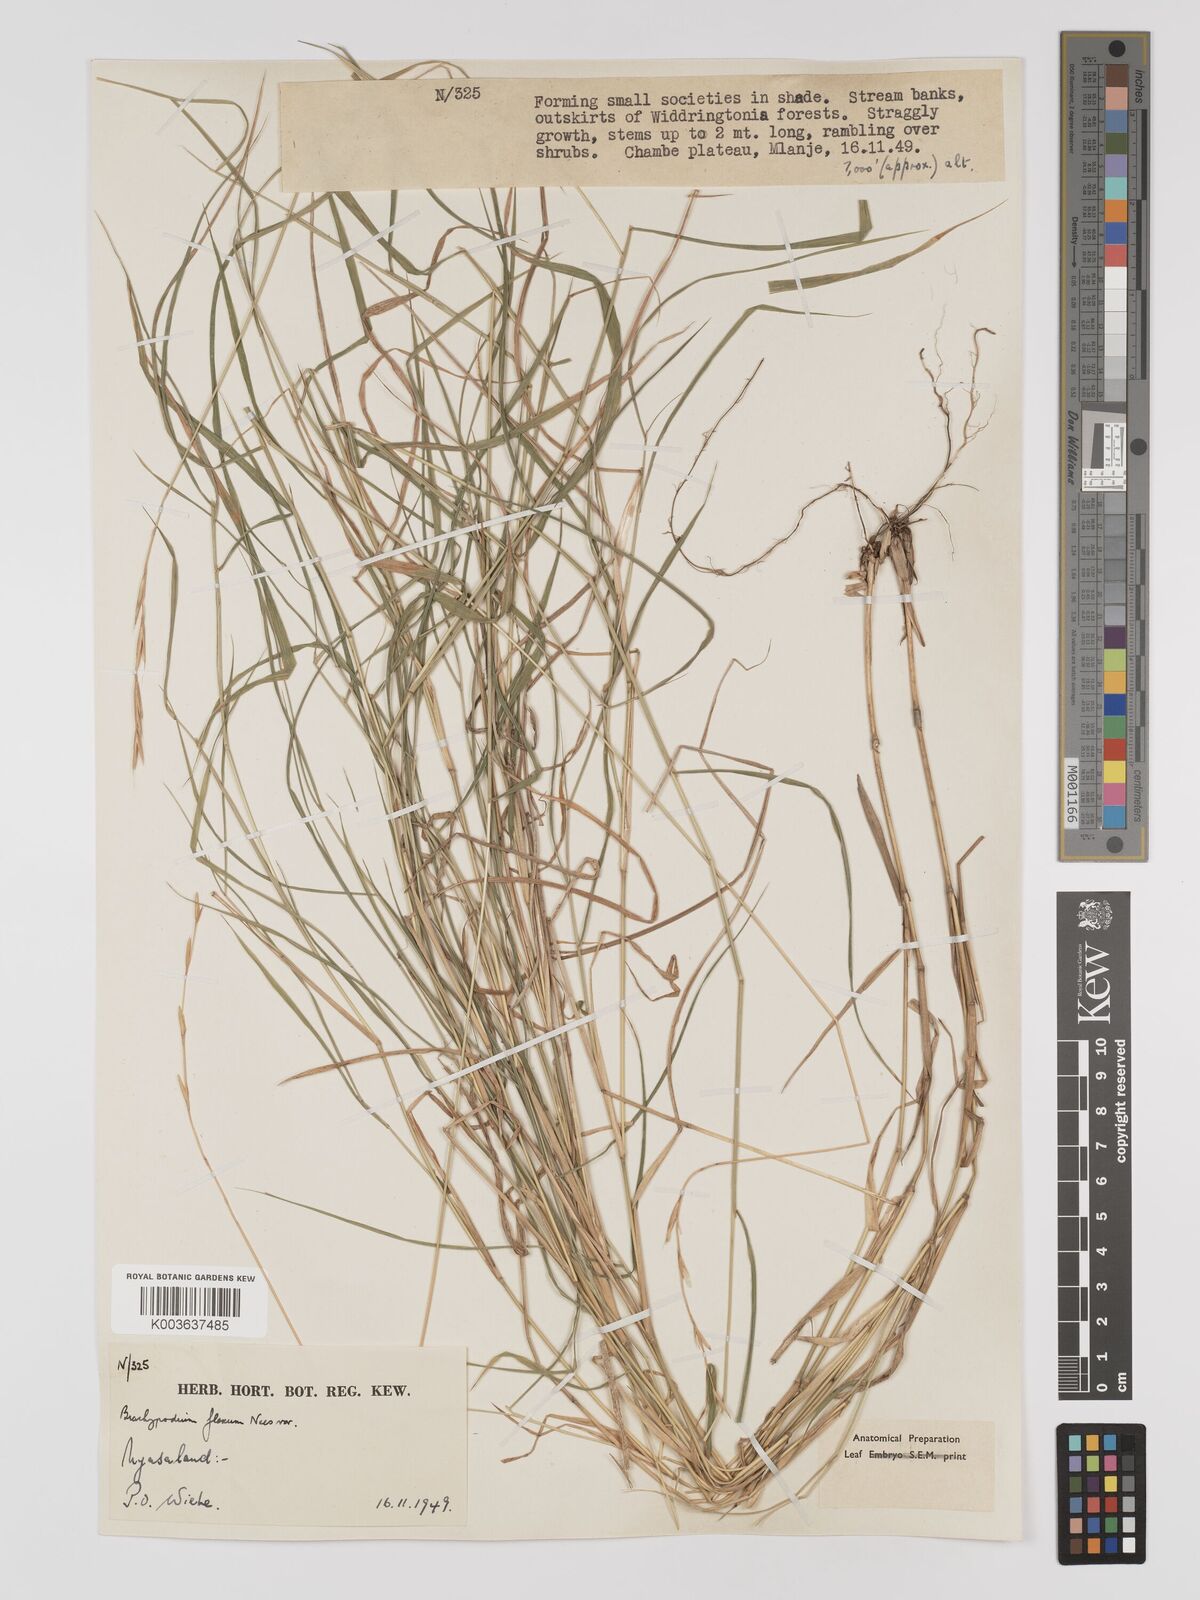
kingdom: Plantae
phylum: Tracheophyta
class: Liliopsida
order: Poales
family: Poaceae
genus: Brachypodium
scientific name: Brachypodium flexum
